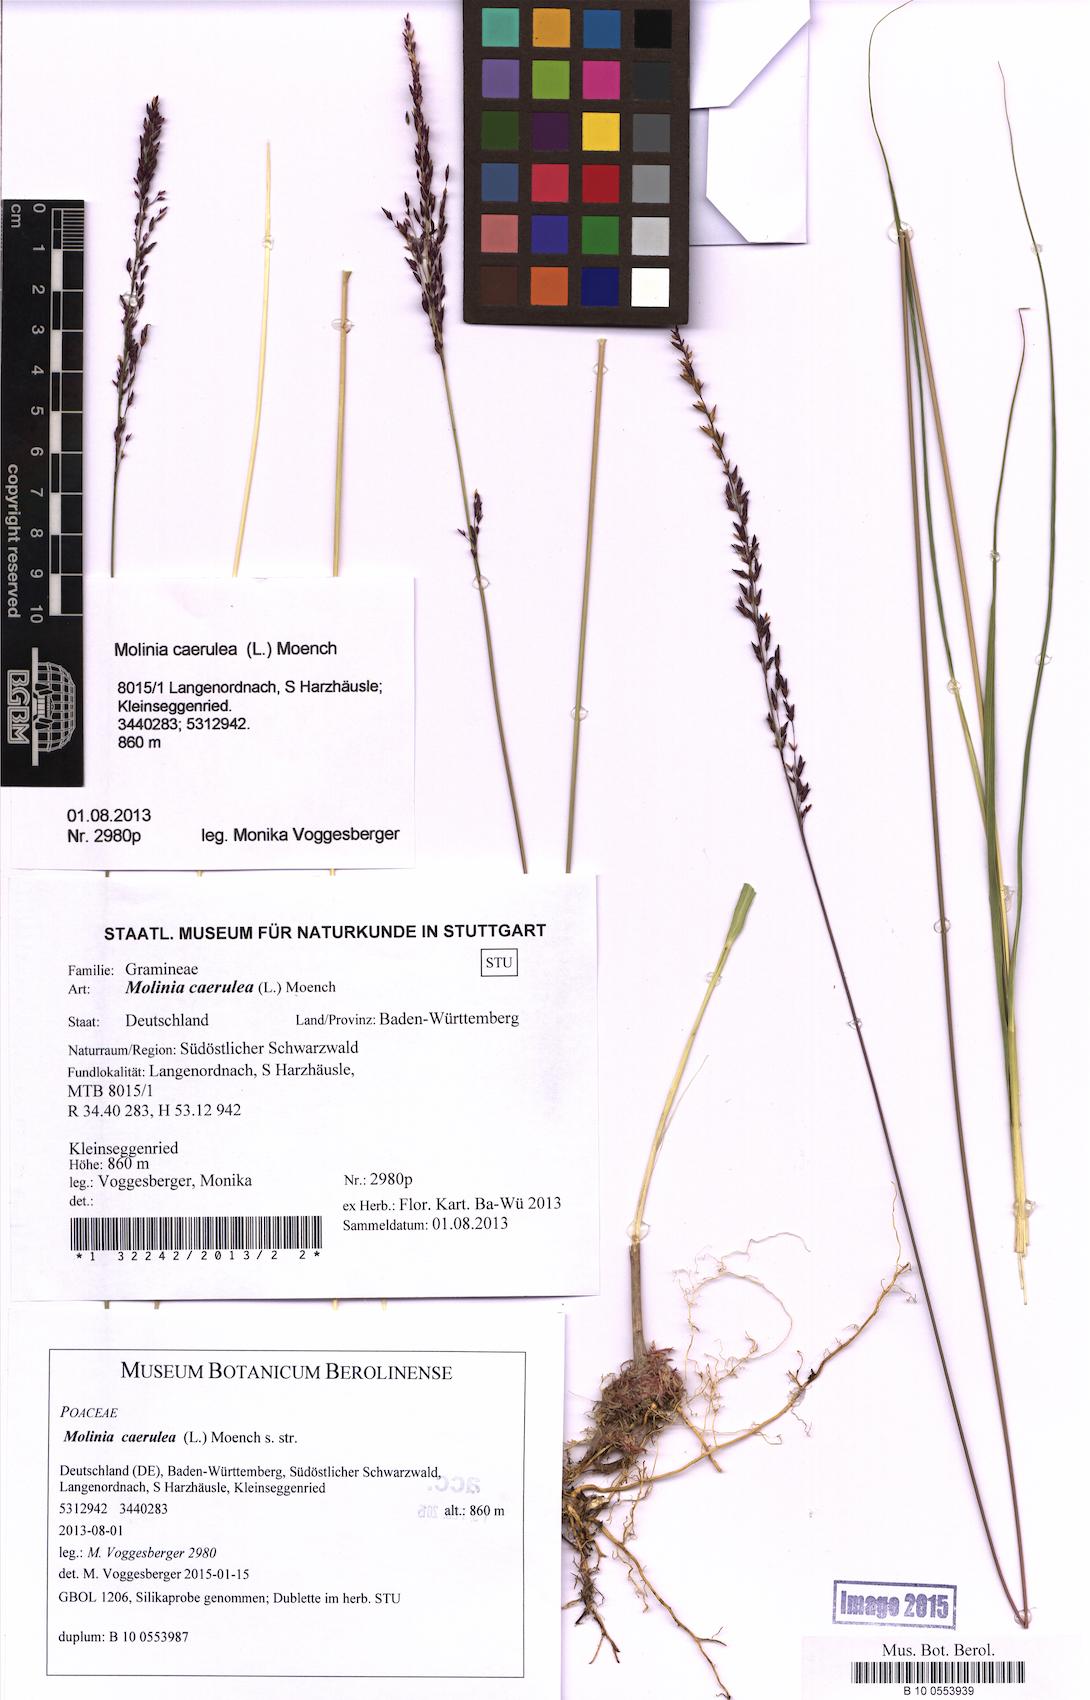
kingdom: Plantae
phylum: Tracheophyta
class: Liliopsida
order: Poales
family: Poaceae
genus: Molinia
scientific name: Molinia caerulea
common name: Purple moor-grass
